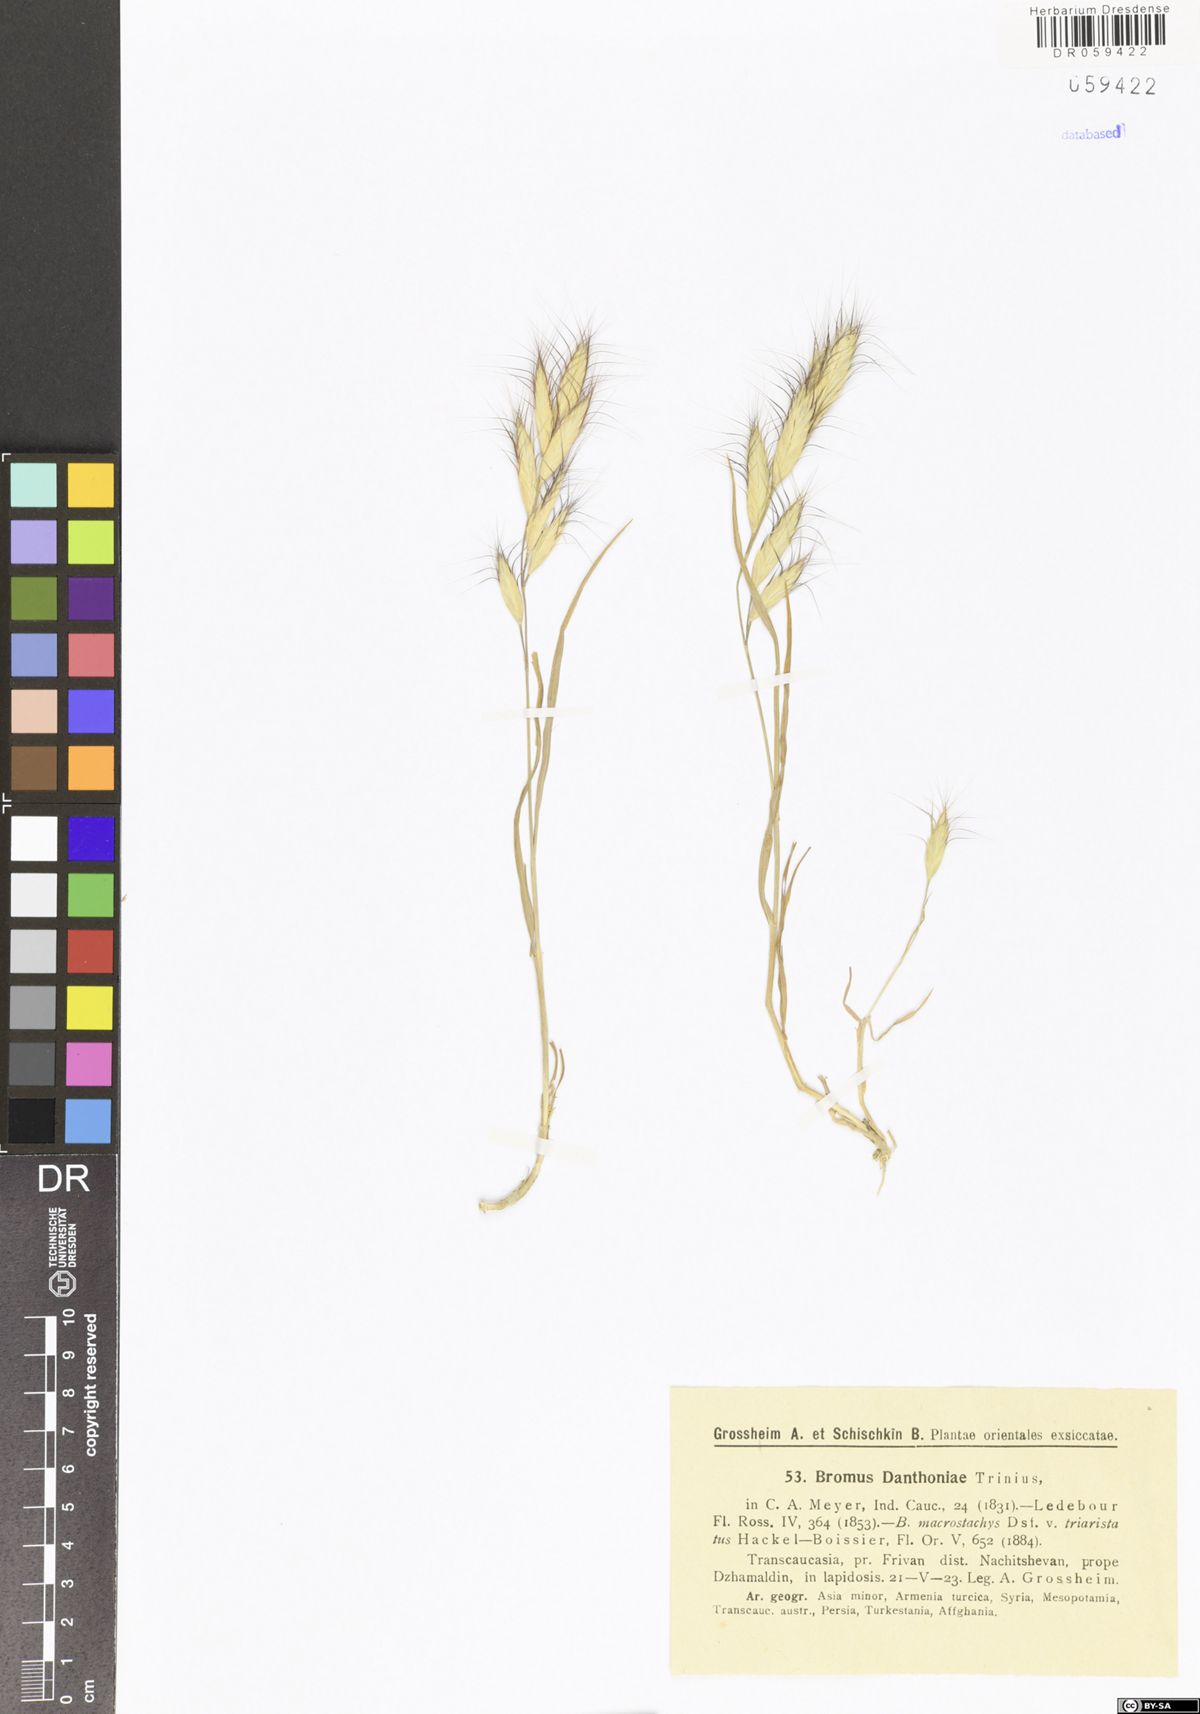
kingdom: Plantae
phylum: Tracheophyta
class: Liliopsida
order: Poales
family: Poaceae
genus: Bromus
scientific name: Bromus danthoniae
